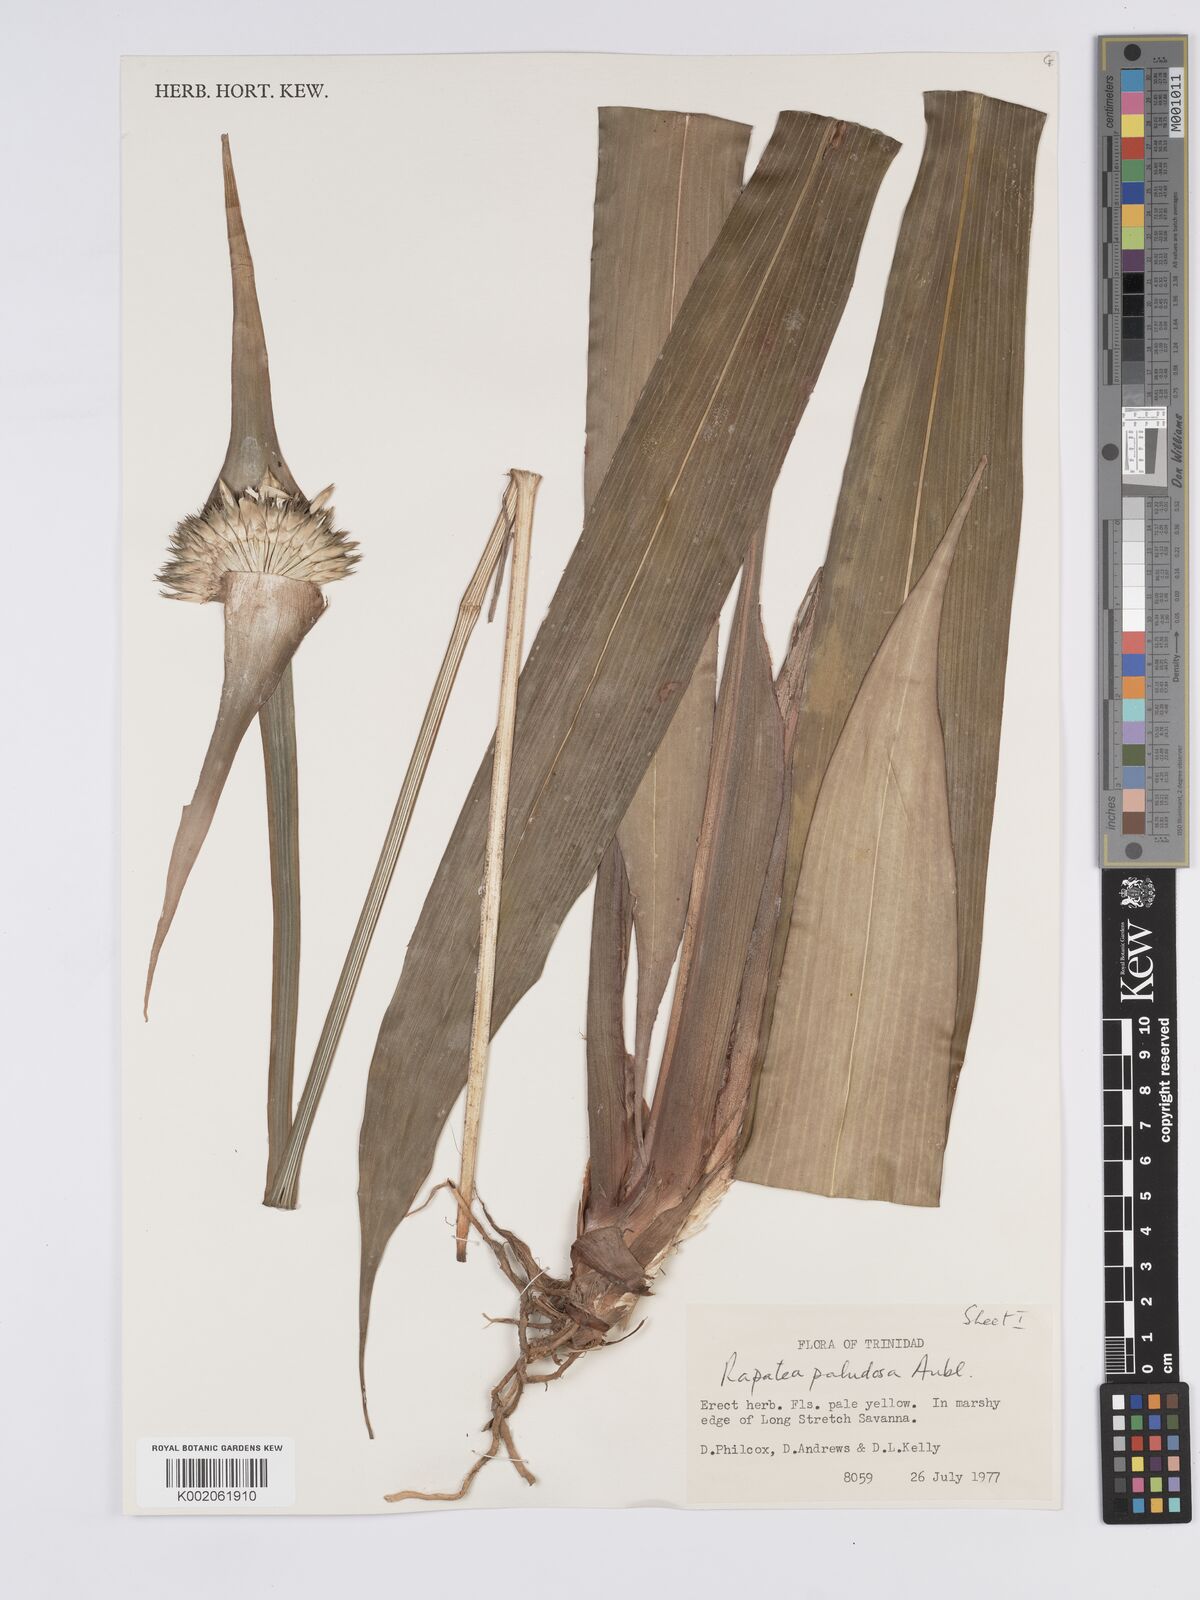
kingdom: Plantae
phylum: Tracheophyta
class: Liliopsida
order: Poales
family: Rapateaceae
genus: Rapatea
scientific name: Rapatea paludosa
